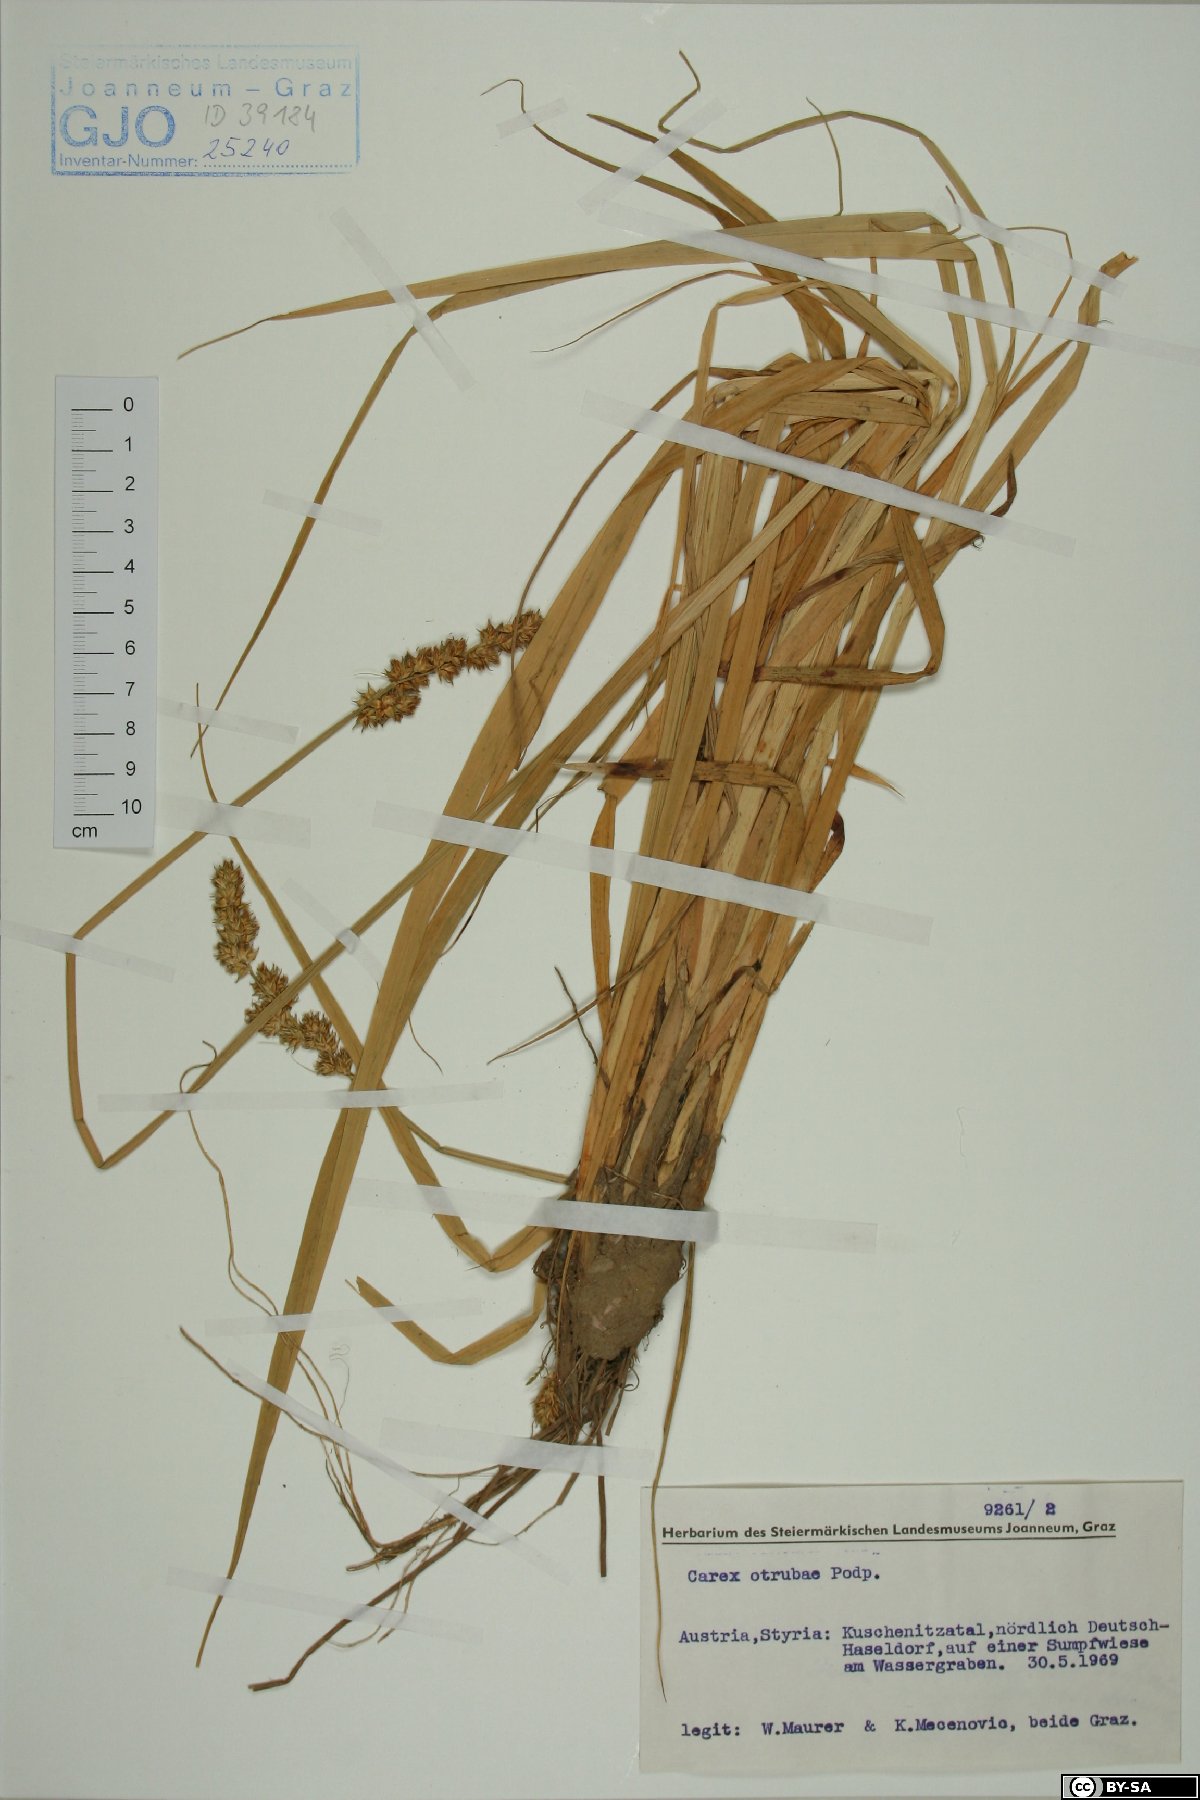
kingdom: Plantae
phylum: Tracheophyta
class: Liliopsida
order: Poales
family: Cyperaceae
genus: Carex
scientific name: Carex otrubae
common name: False fox-sedge
